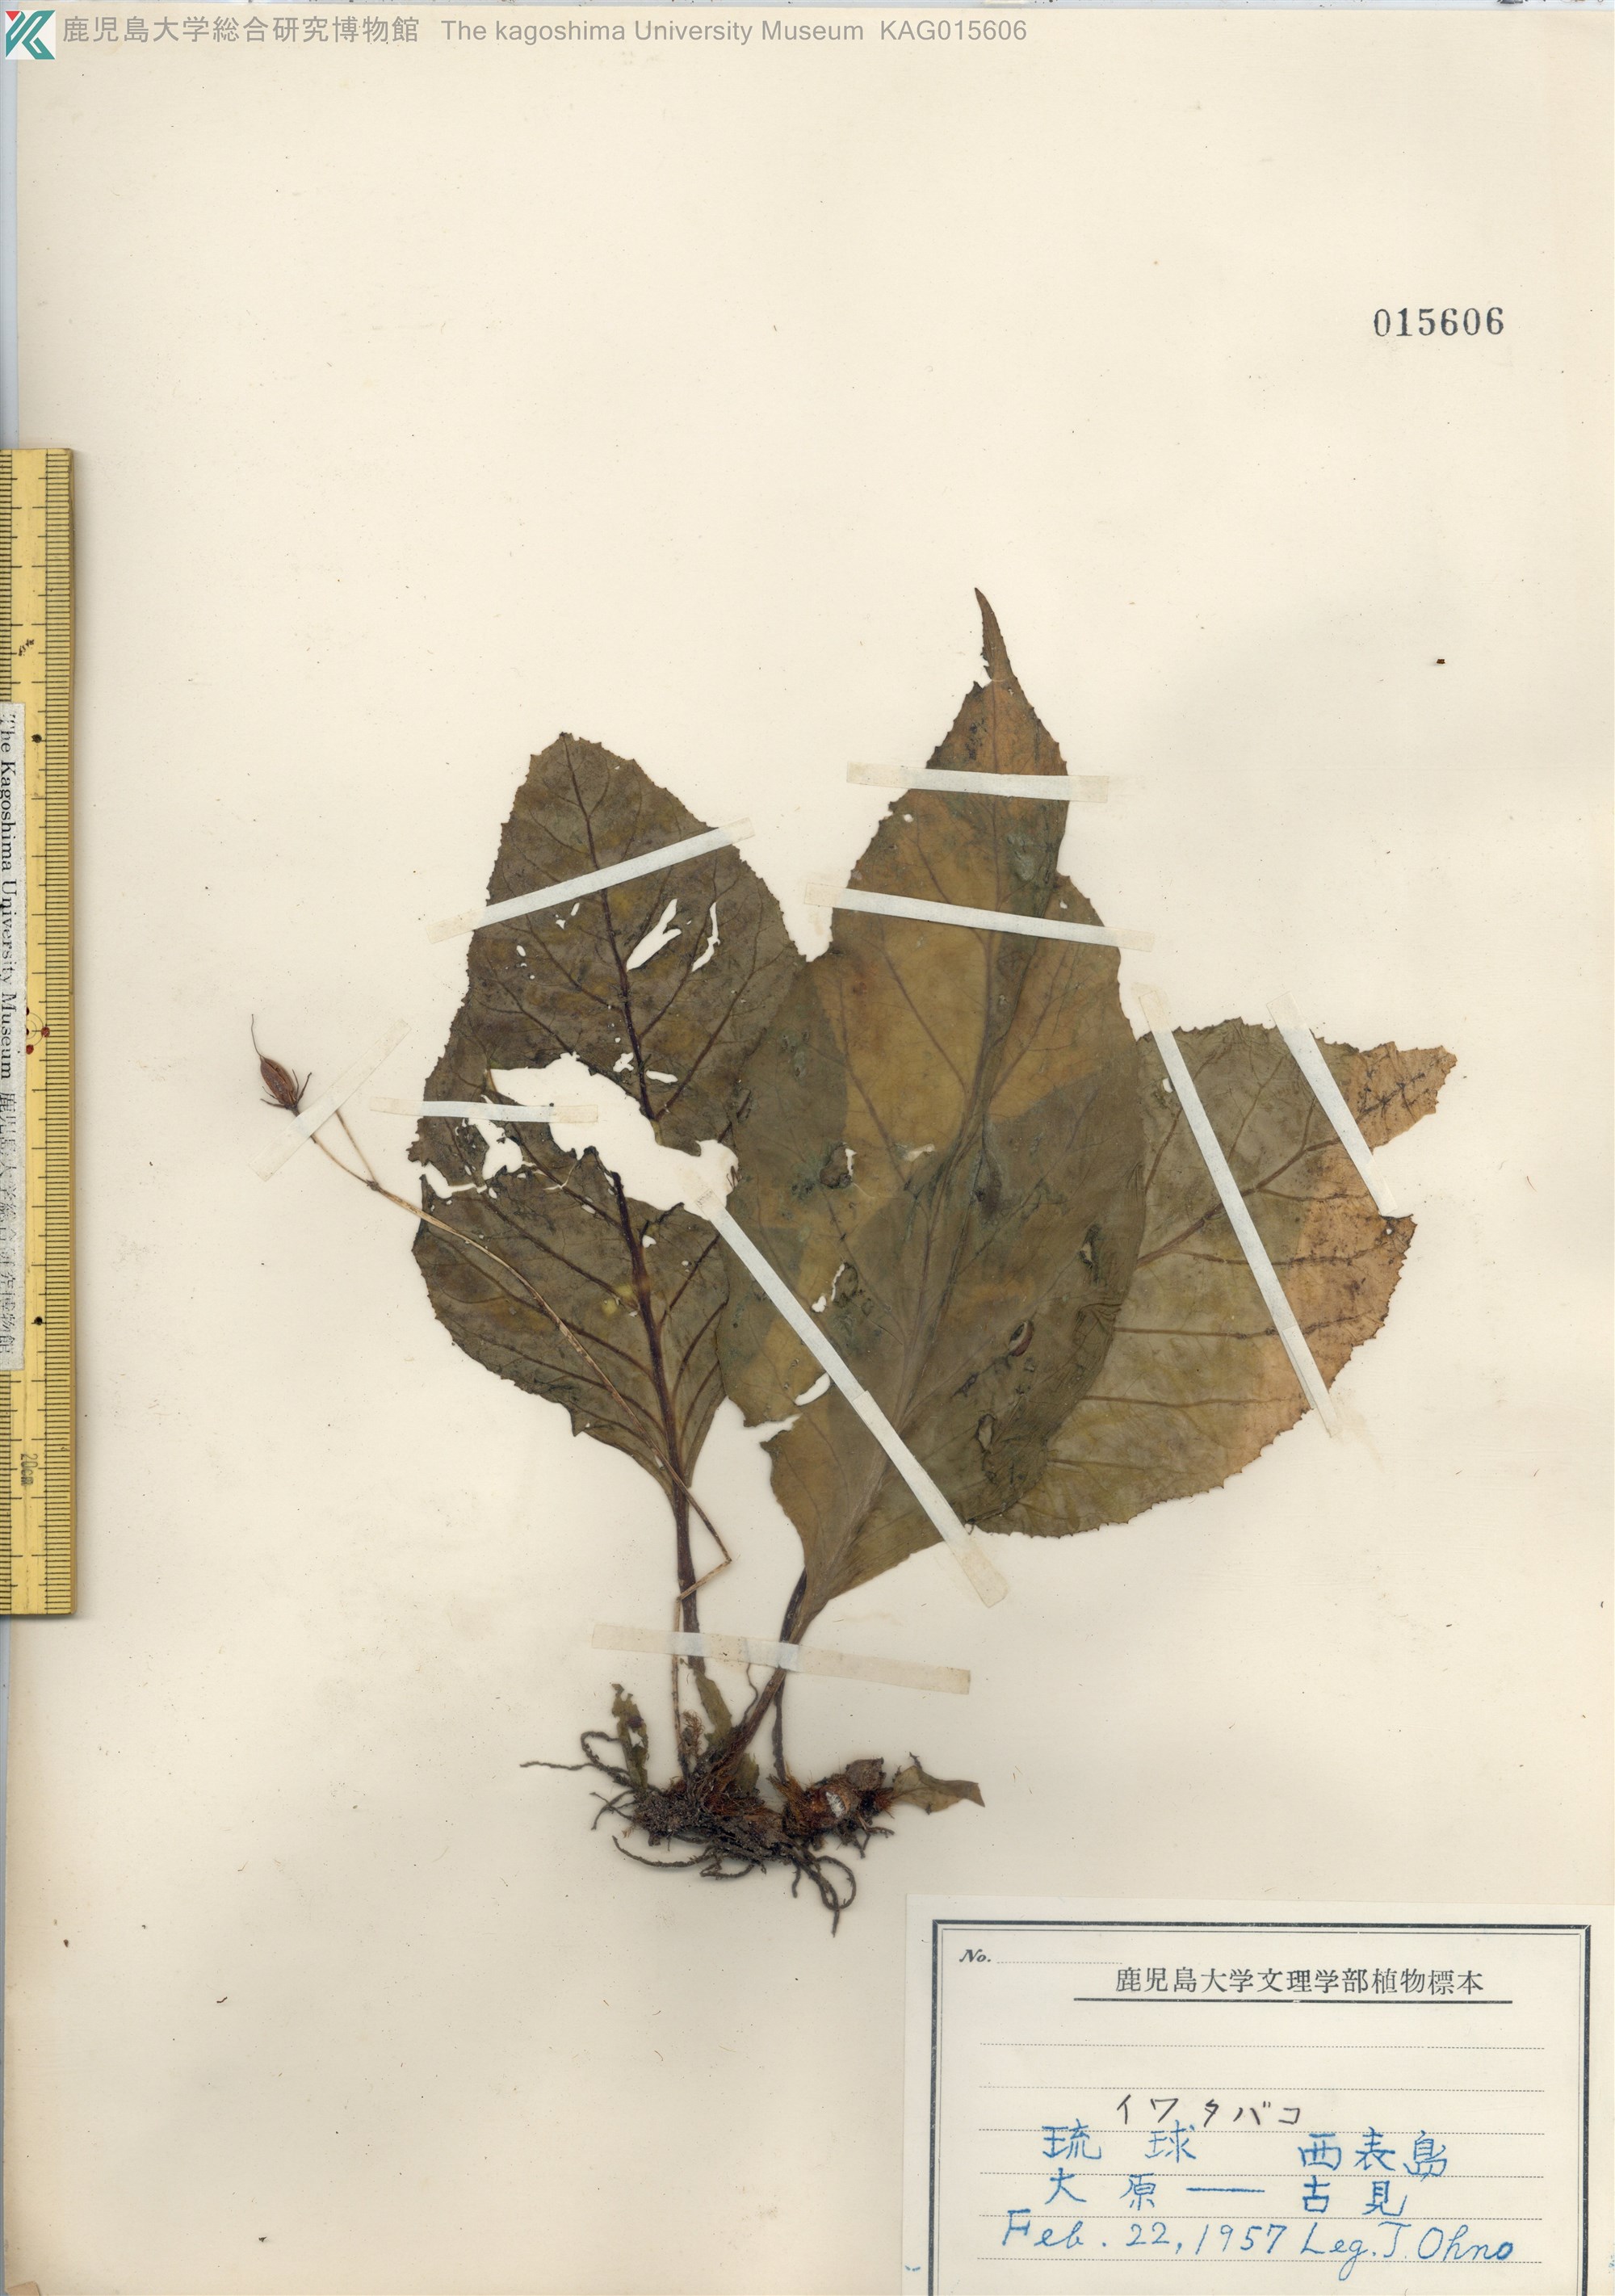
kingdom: Plantae
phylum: Tracheophyta
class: Magnoliopsida
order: Lamiales
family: Gesneriaceae
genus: Conandron
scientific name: Conandron ramondioides
